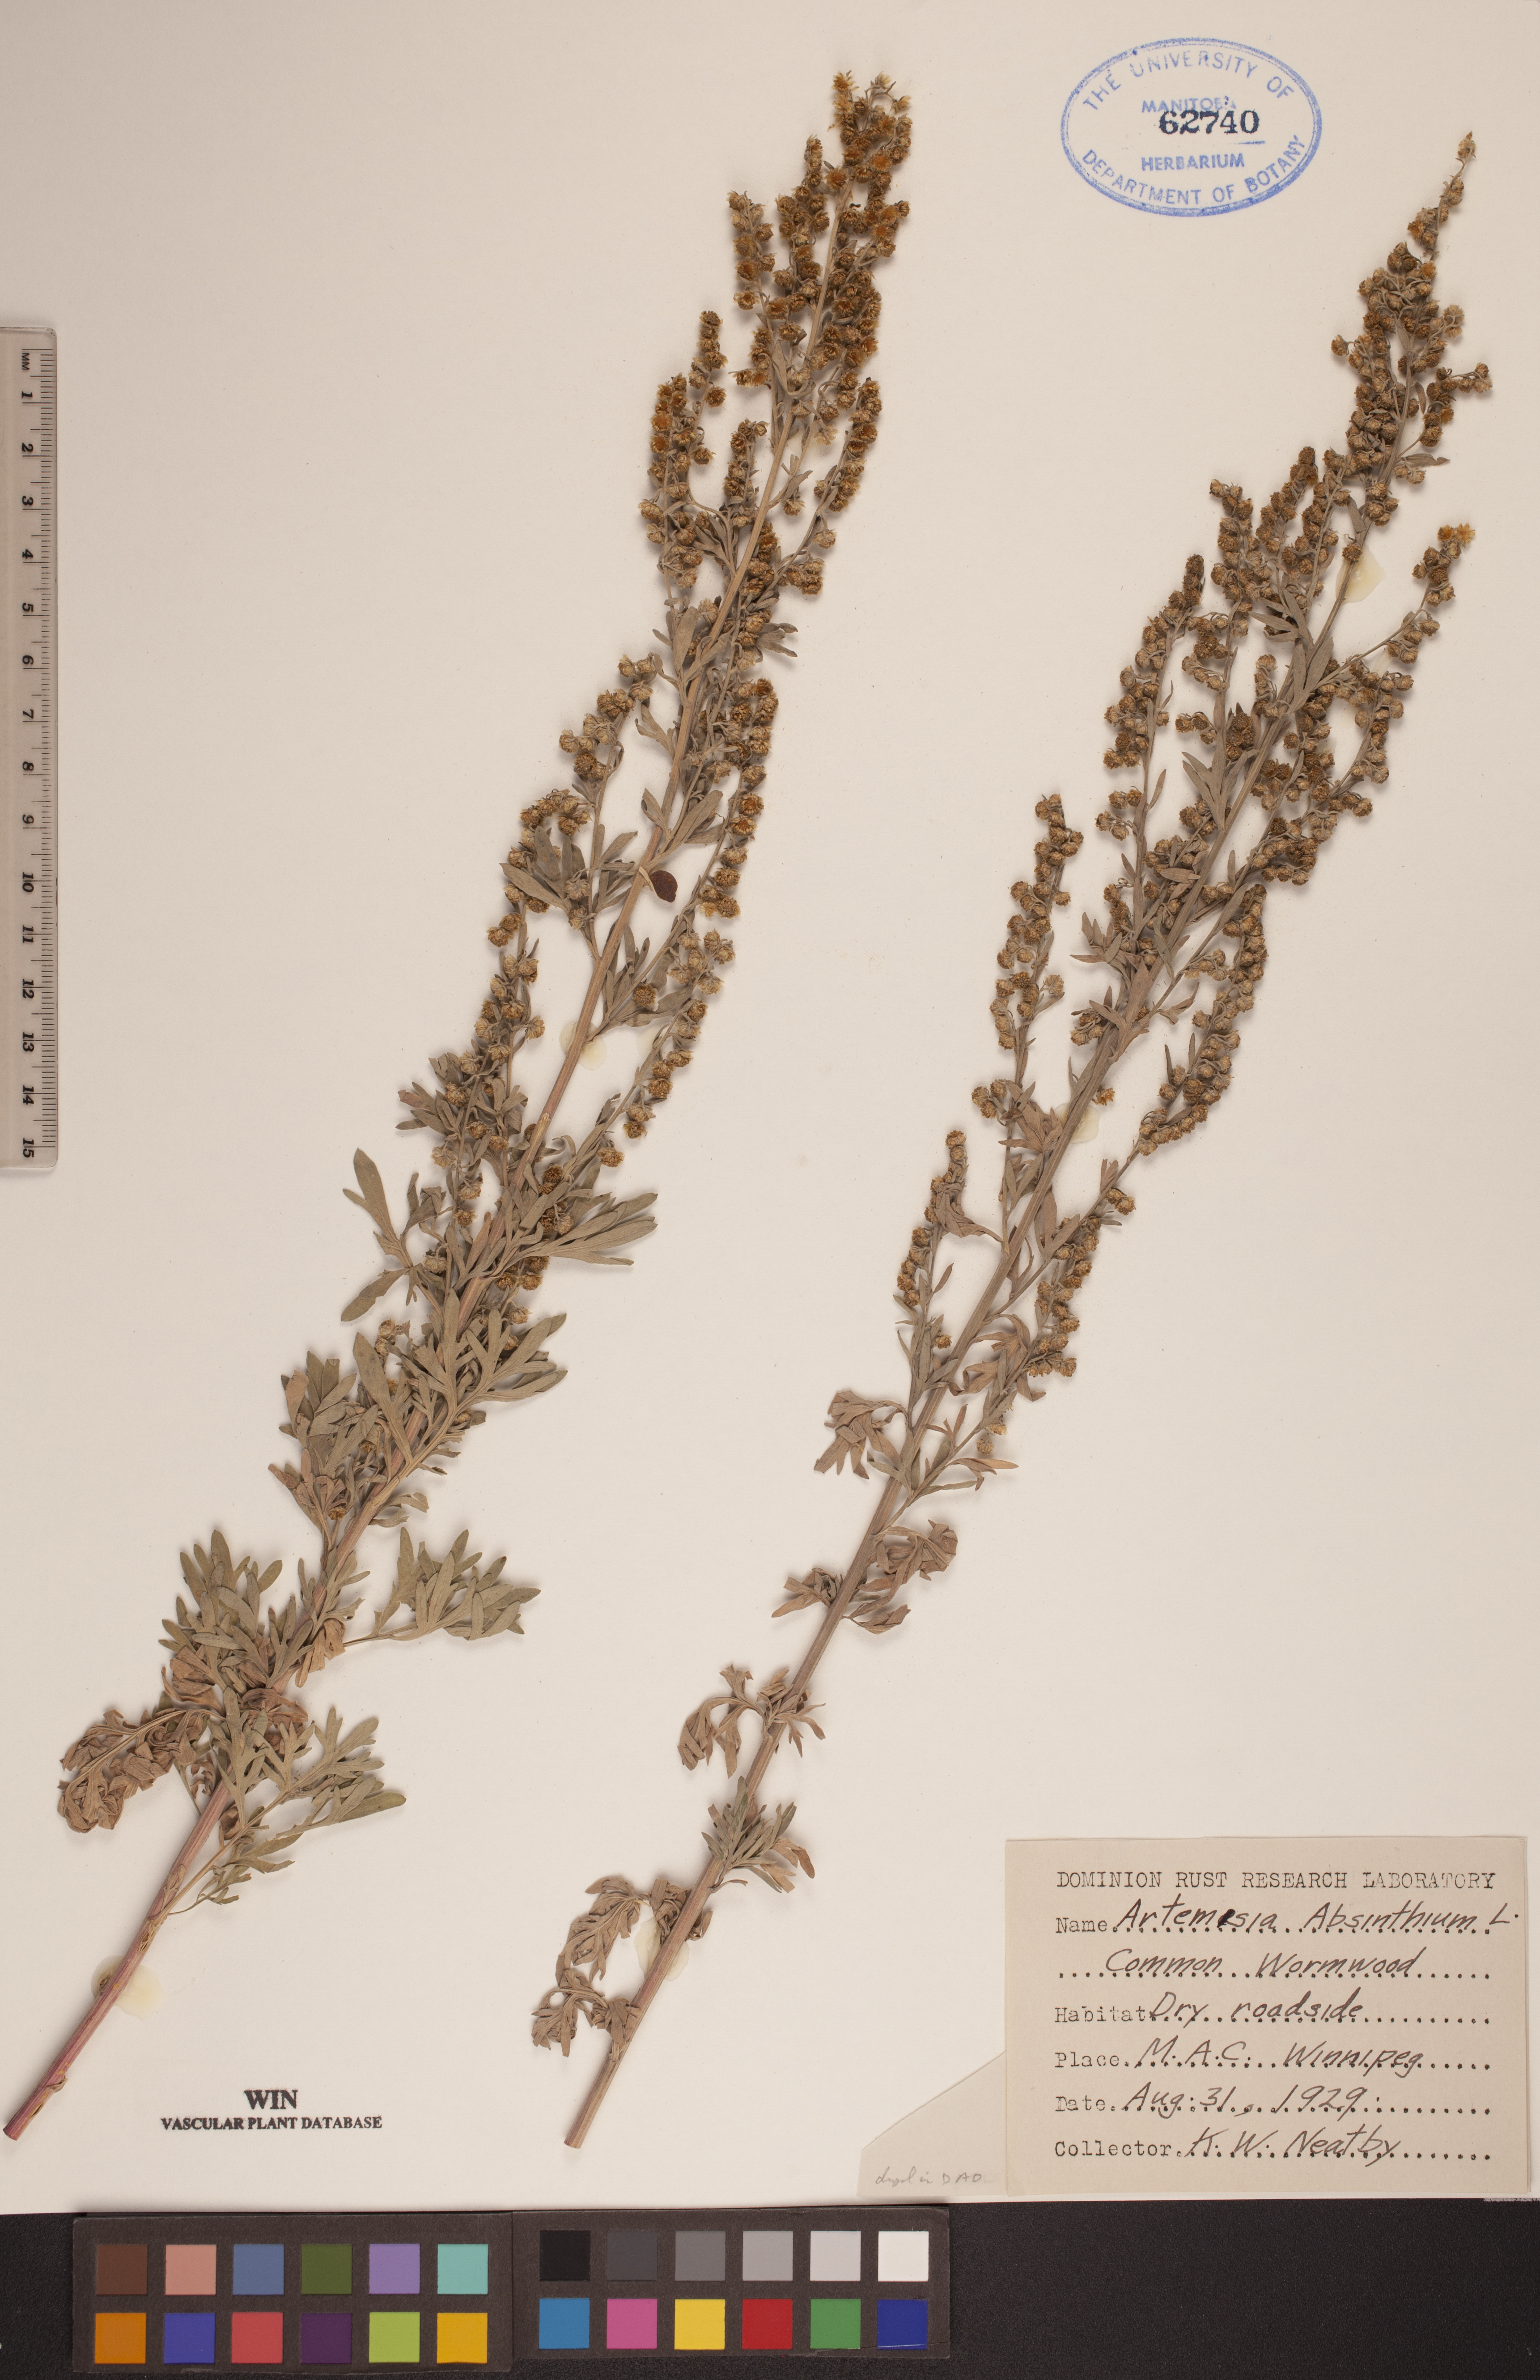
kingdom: Plantae
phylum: Tracheophyta
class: Magnoliopsida
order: Asterales
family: Asteraceae
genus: Artemisia
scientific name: Artemisia absinthium
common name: Wormwood
